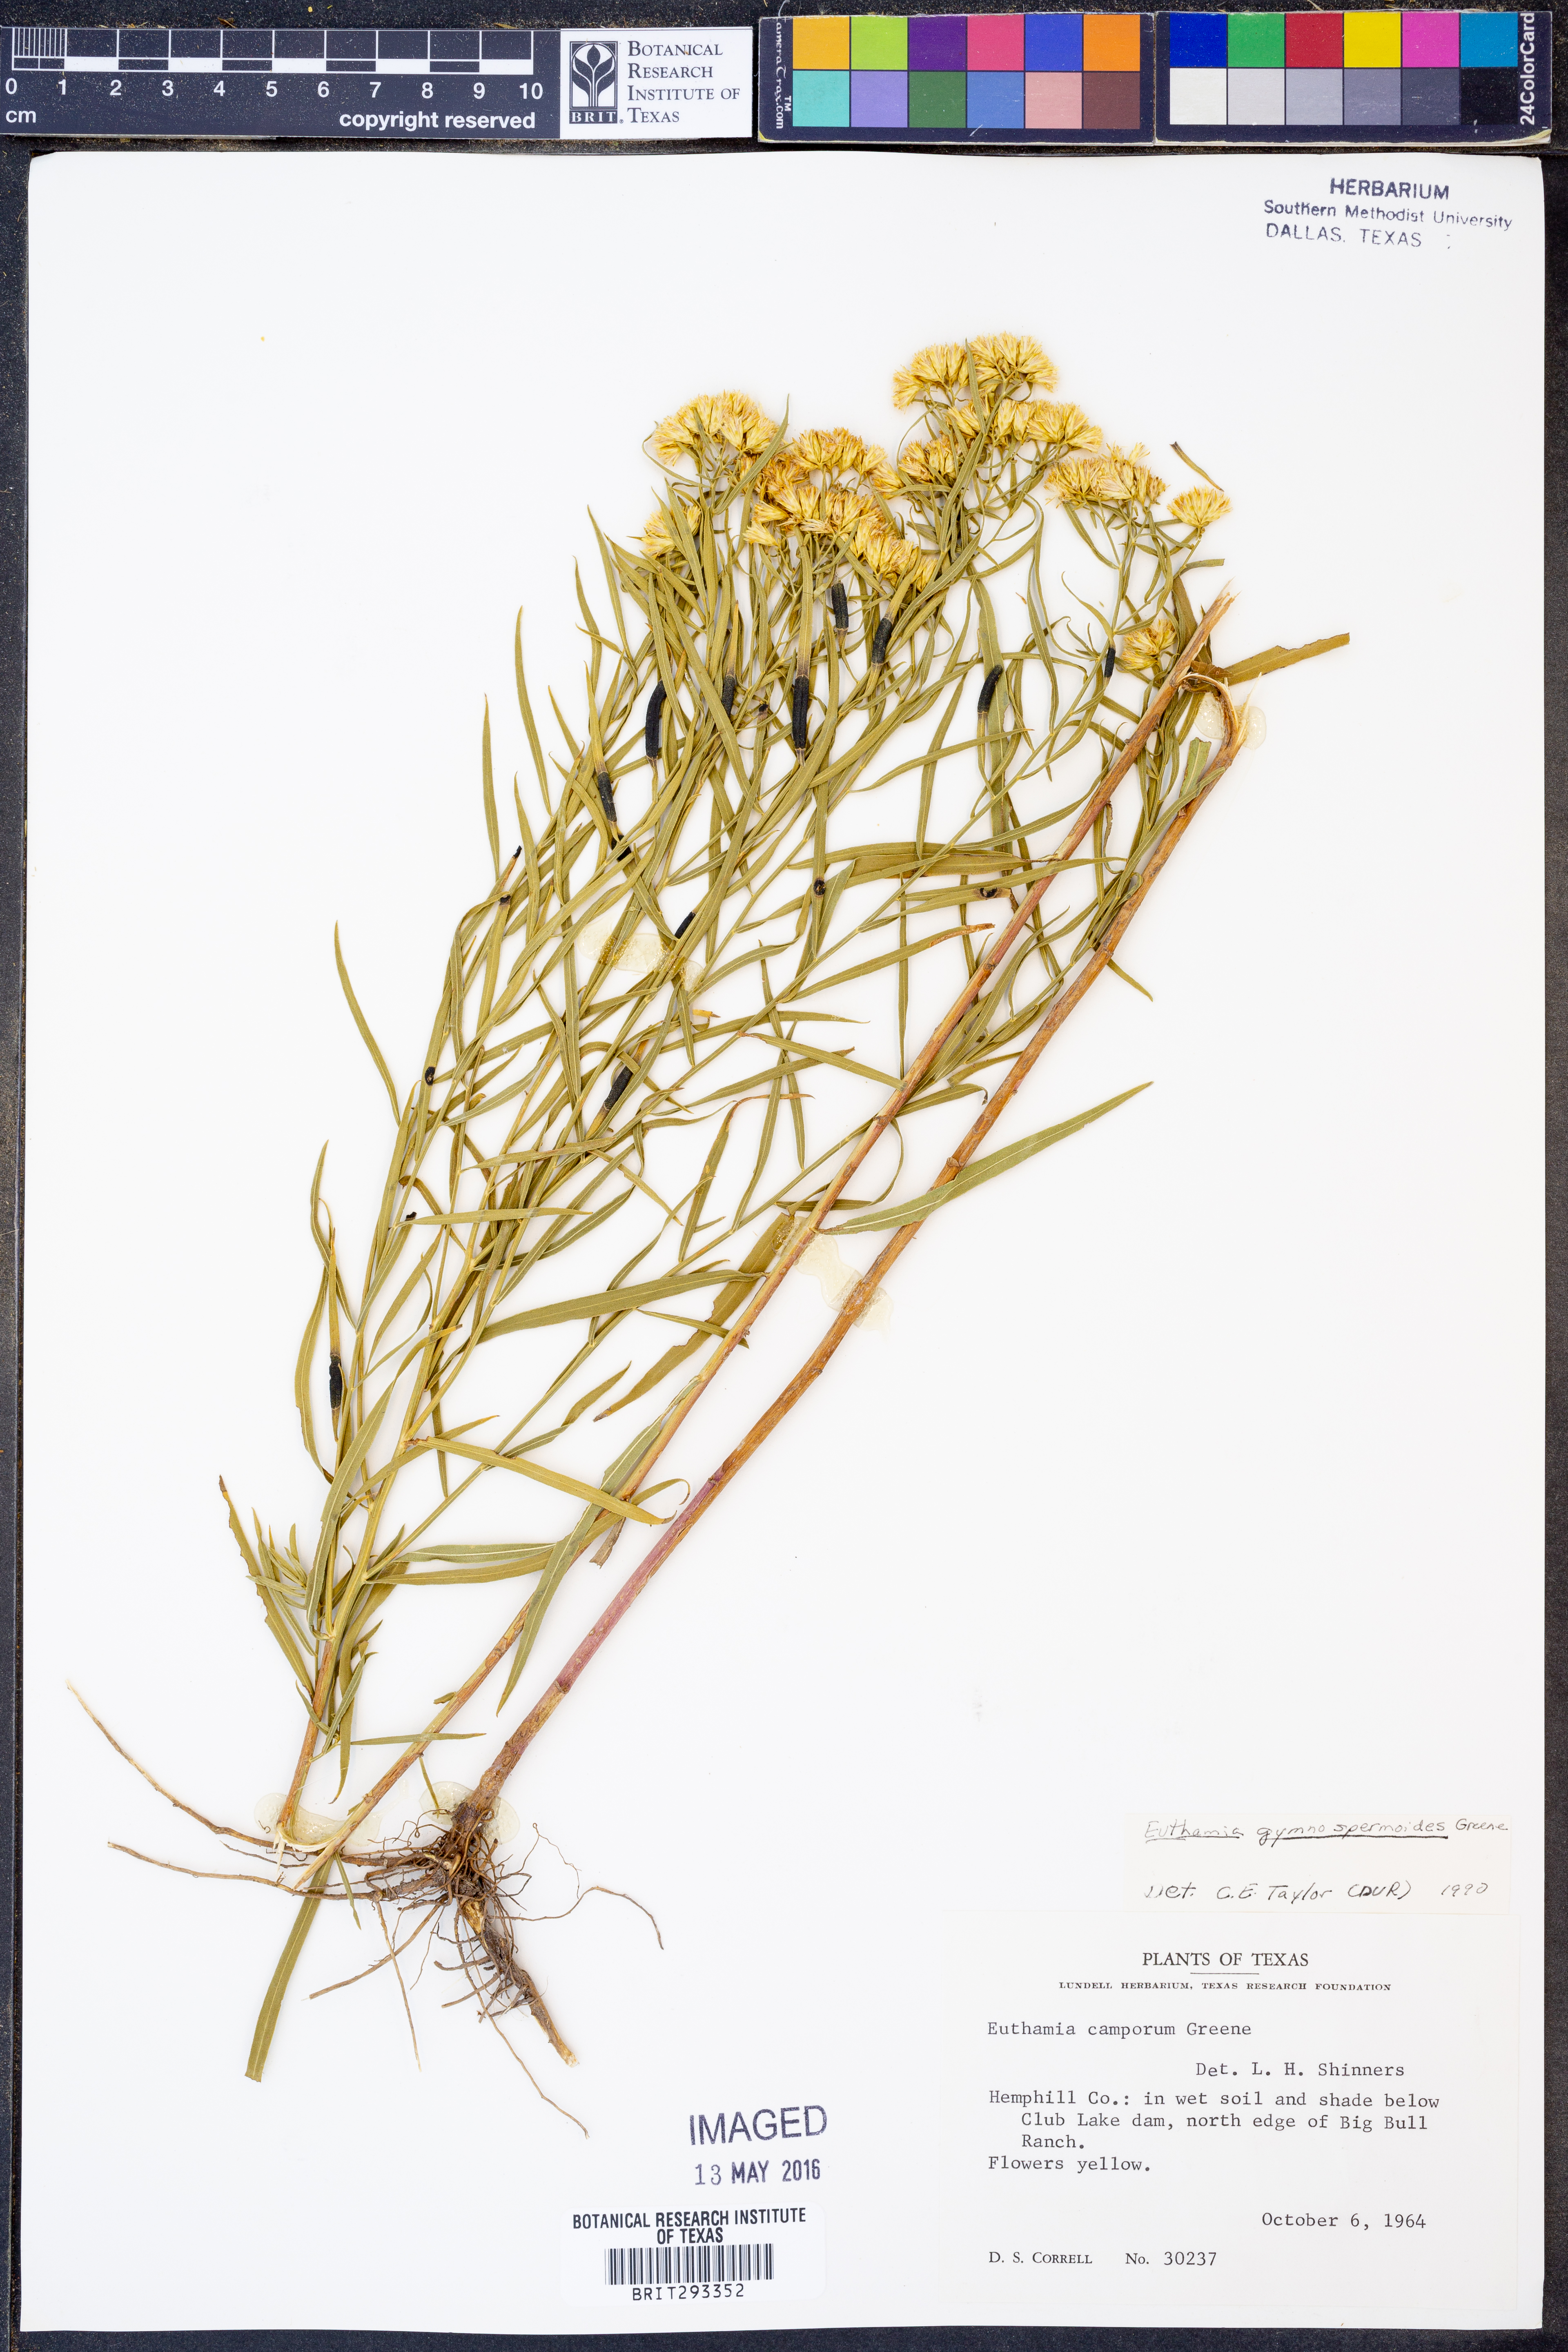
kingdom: Plantae
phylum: Tracheophyta
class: Magnoliopsida
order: Asterales
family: Asteraceae
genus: Euthamia
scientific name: Euthamia gymnospermoides
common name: Great plains goldentop
